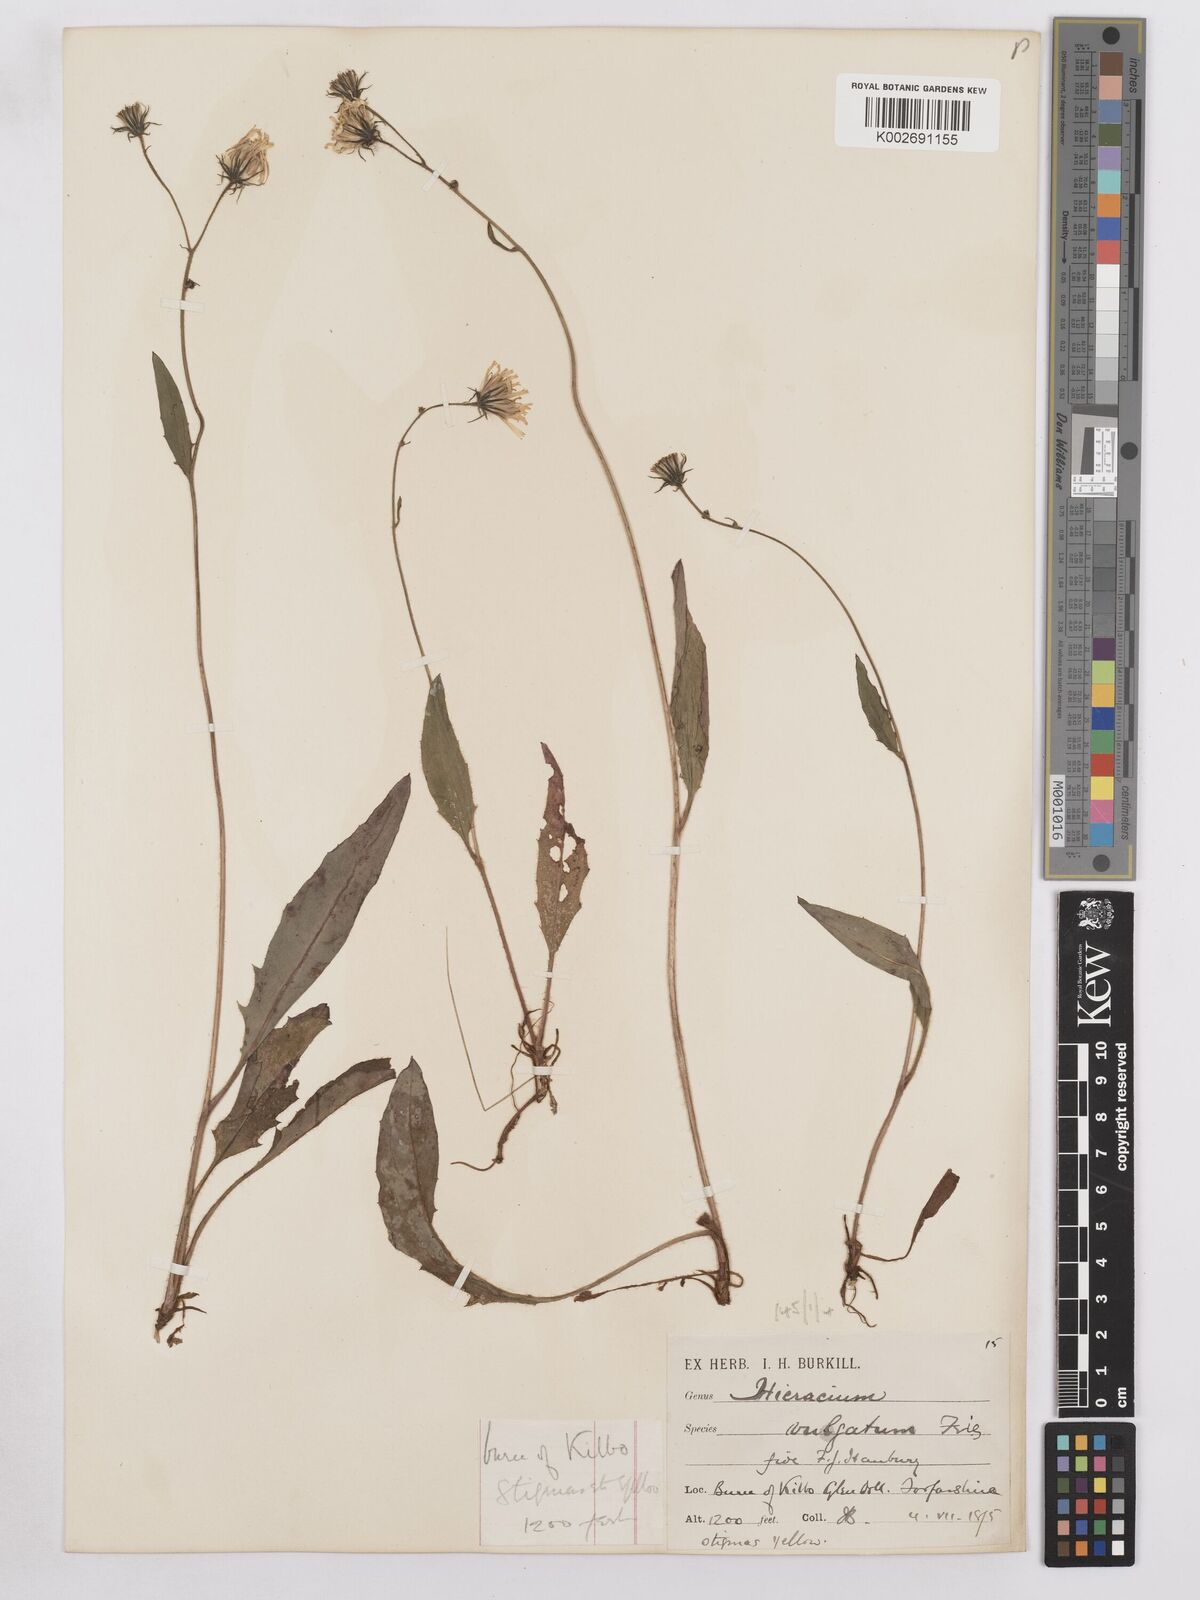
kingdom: Plantae
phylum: Tracheophyta
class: Magnoliopsida
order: Asterales
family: Asteraceae
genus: Hieracium
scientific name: Hieracium lachenalii
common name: Common hawkweed
